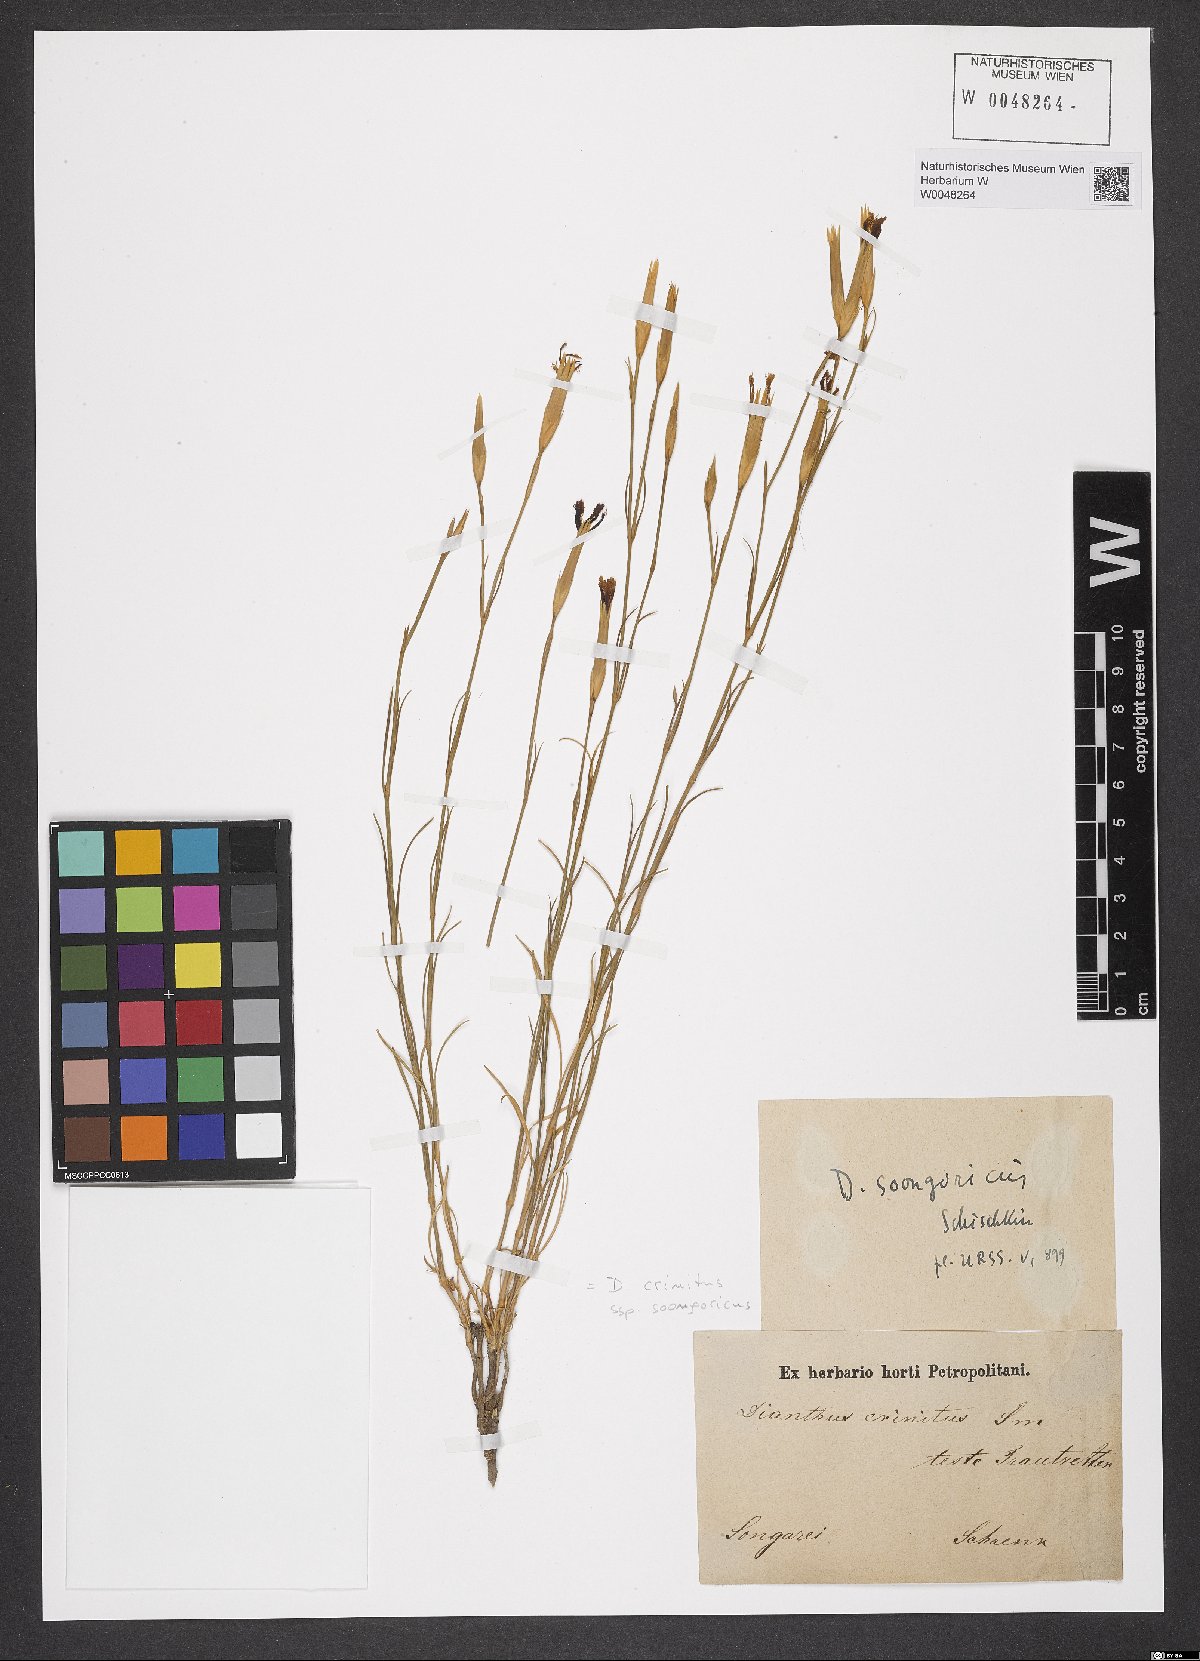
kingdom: Plantae
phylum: Tracheophyta
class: Magnoliopsida
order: Caryophyllales
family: Caryophyllaceae
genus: Dianthus
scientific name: Dianthus crinitus
